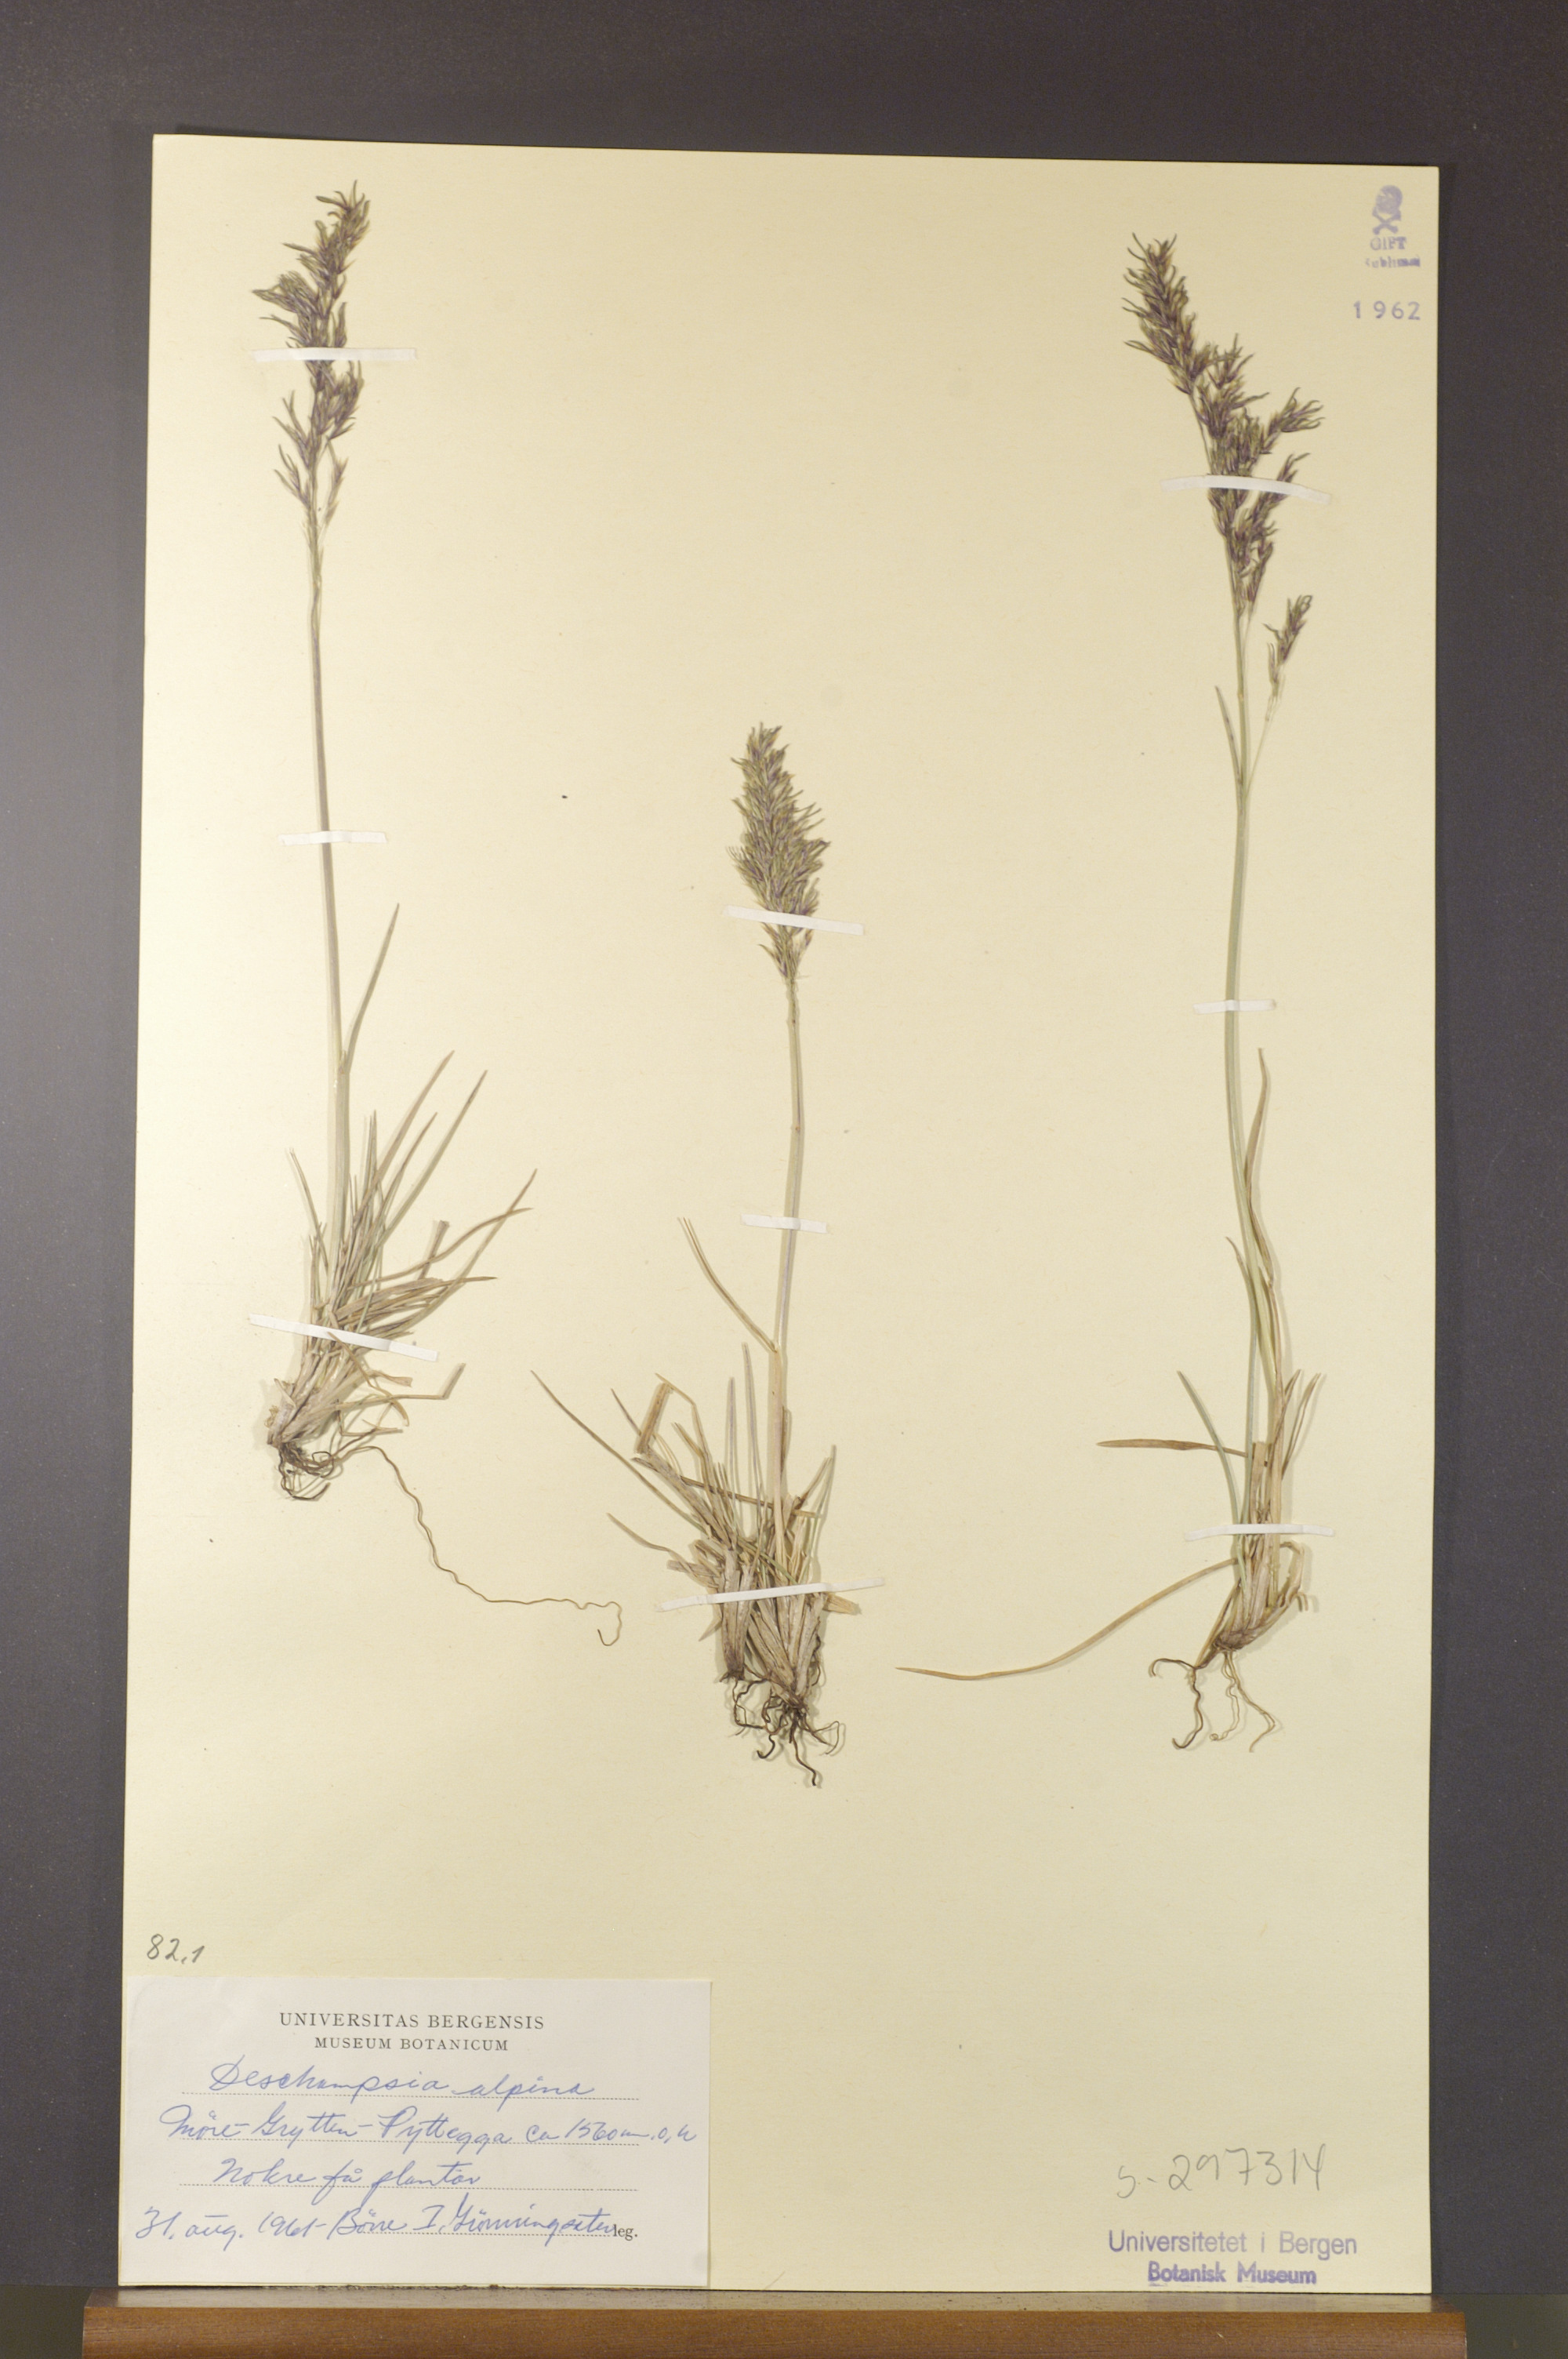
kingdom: Plantae
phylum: Tracheophyta
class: Liliopsida
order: Poales
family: Poaceae
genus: Deschampsia
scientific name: Deschampsia cespitosa
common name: Tufted hair-grass
